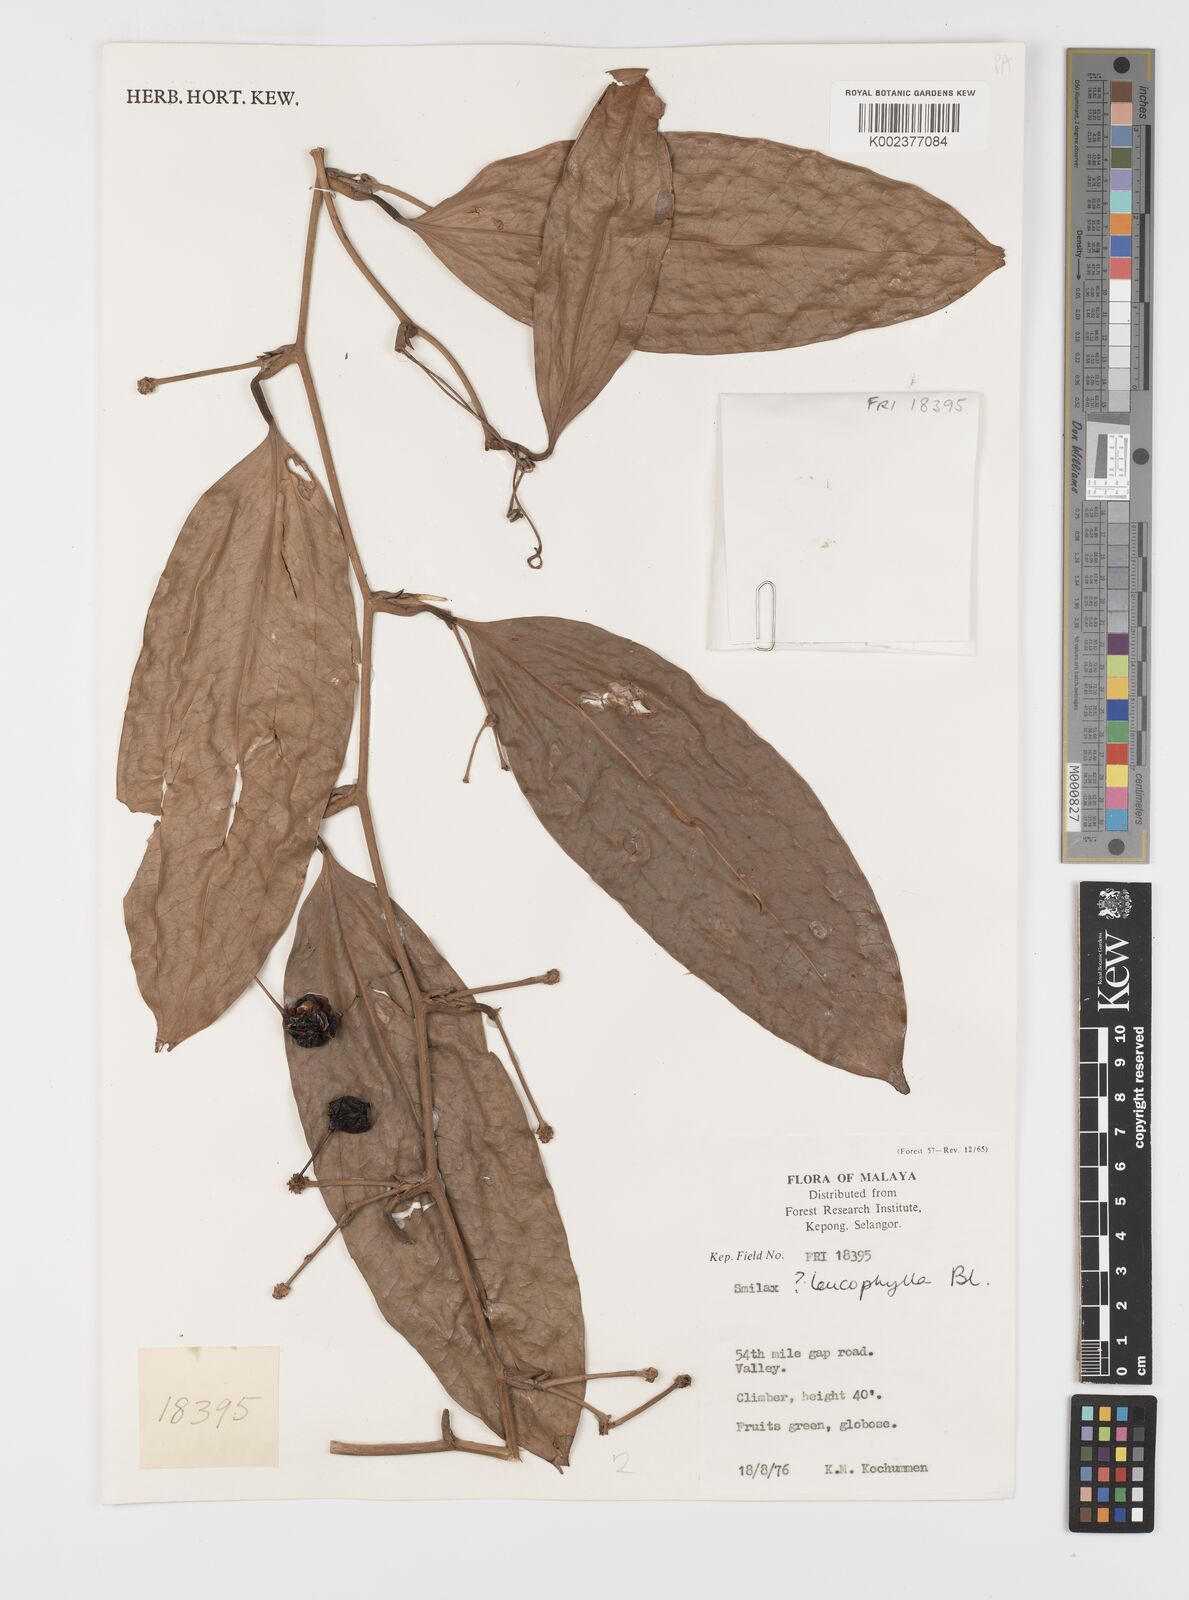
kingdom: Plantae
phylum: Tracheophyta
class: Liliopsida
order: Liliales
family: Smilacaceae
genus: Smilax
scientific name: Smilax leucophylla
